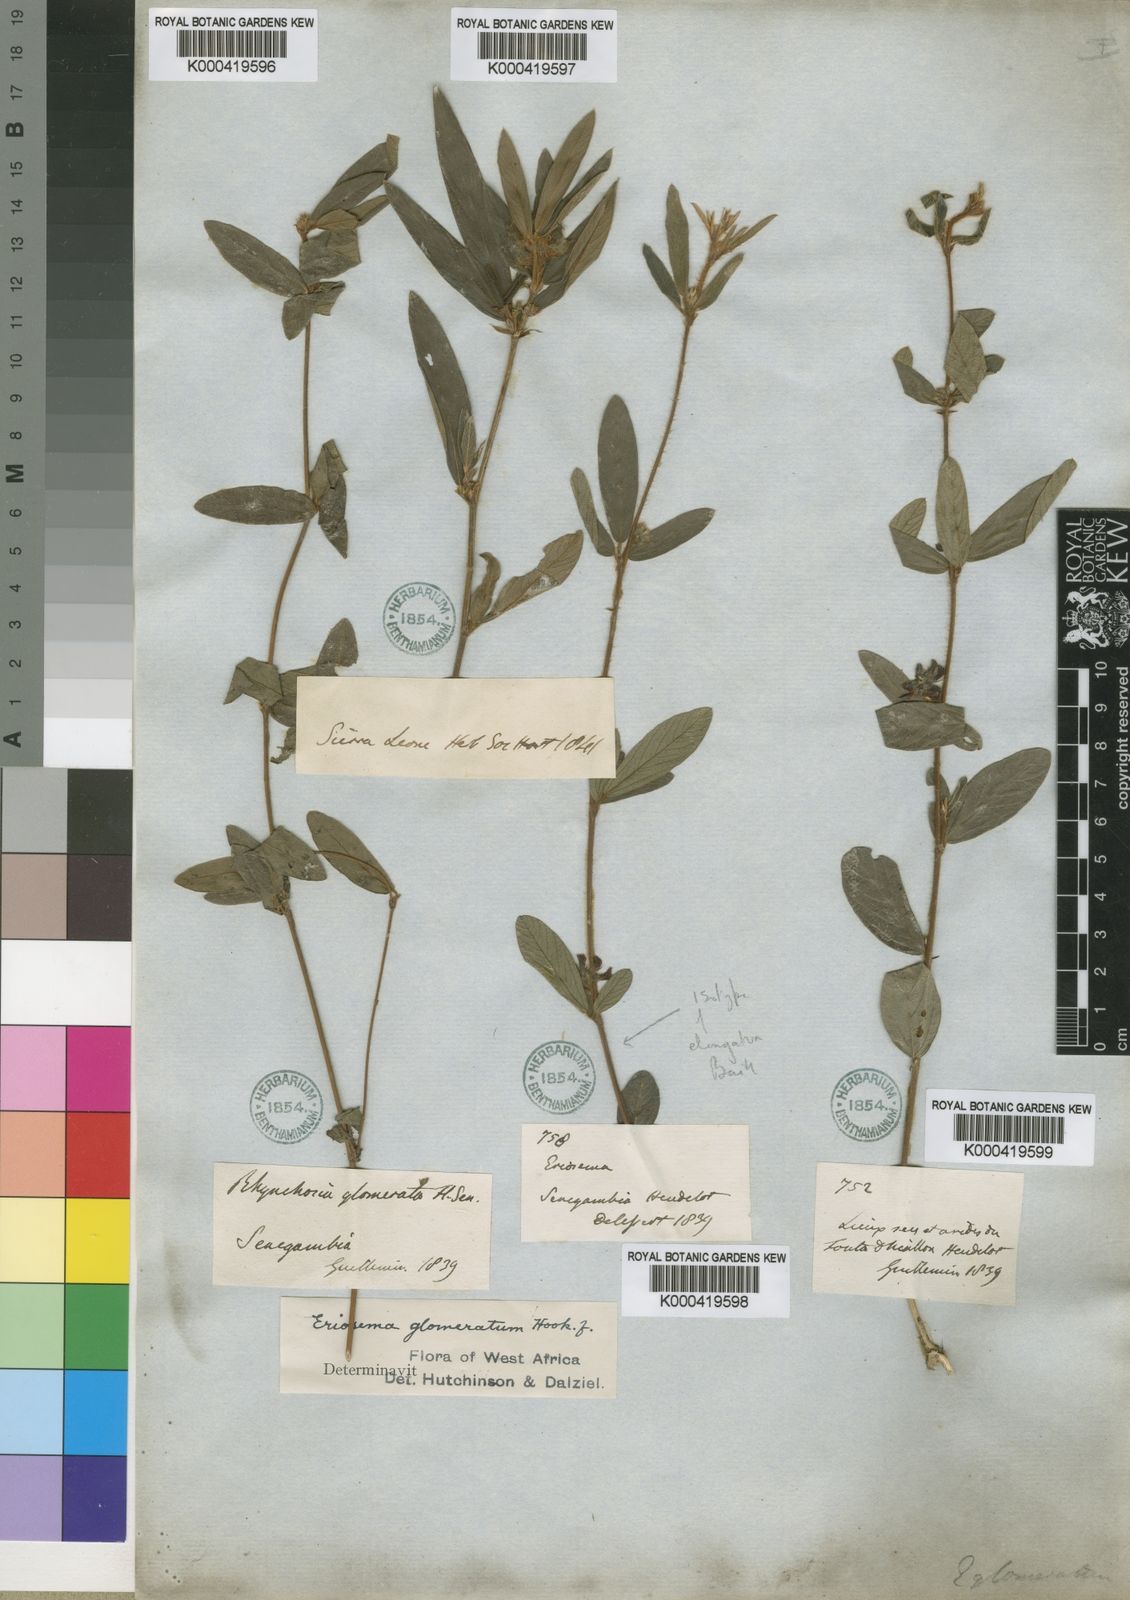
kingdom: Plantae
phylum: Tracheophyta
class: Magnoliopsida
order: Fabales
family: Fabaceae
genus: Eriosema
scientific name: Eriosema glomeratum
